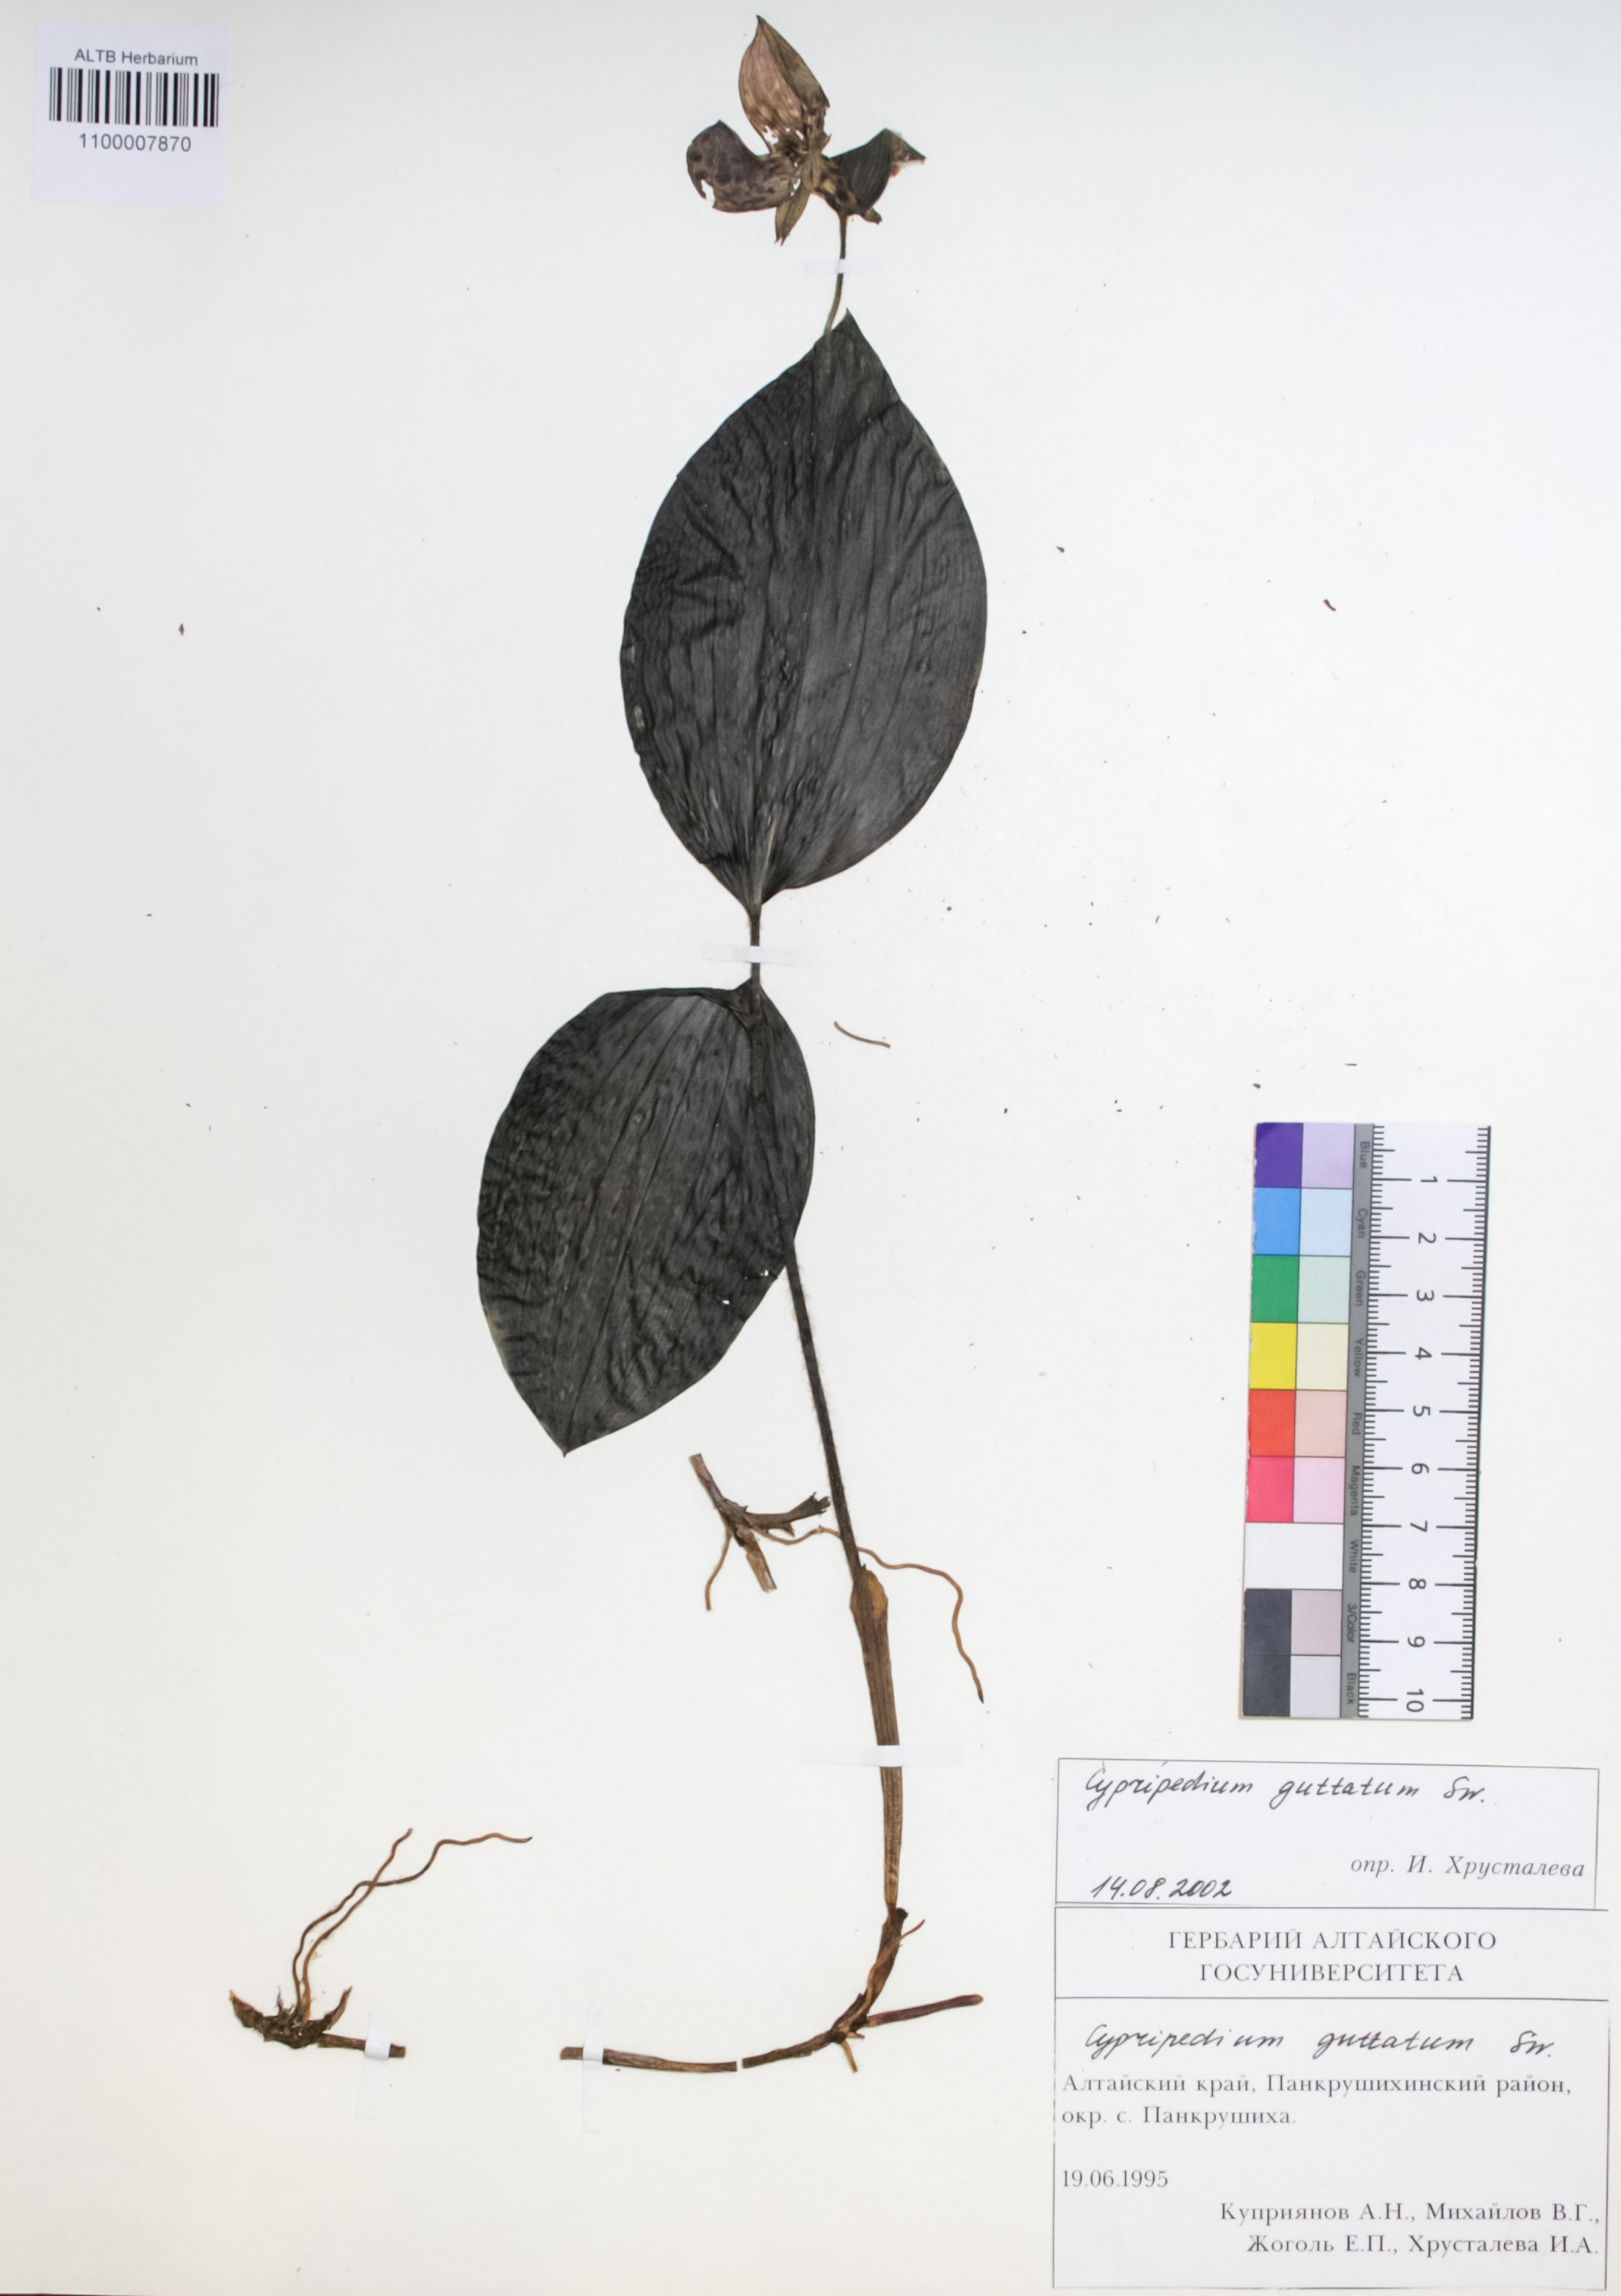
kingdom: Plantae
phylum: Tracheophyta
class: Liliopsida
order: Asparagales
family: Orchidaceae
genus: Cypripedium
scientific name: Cypripedium guttatum
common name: Pink lady slipper
